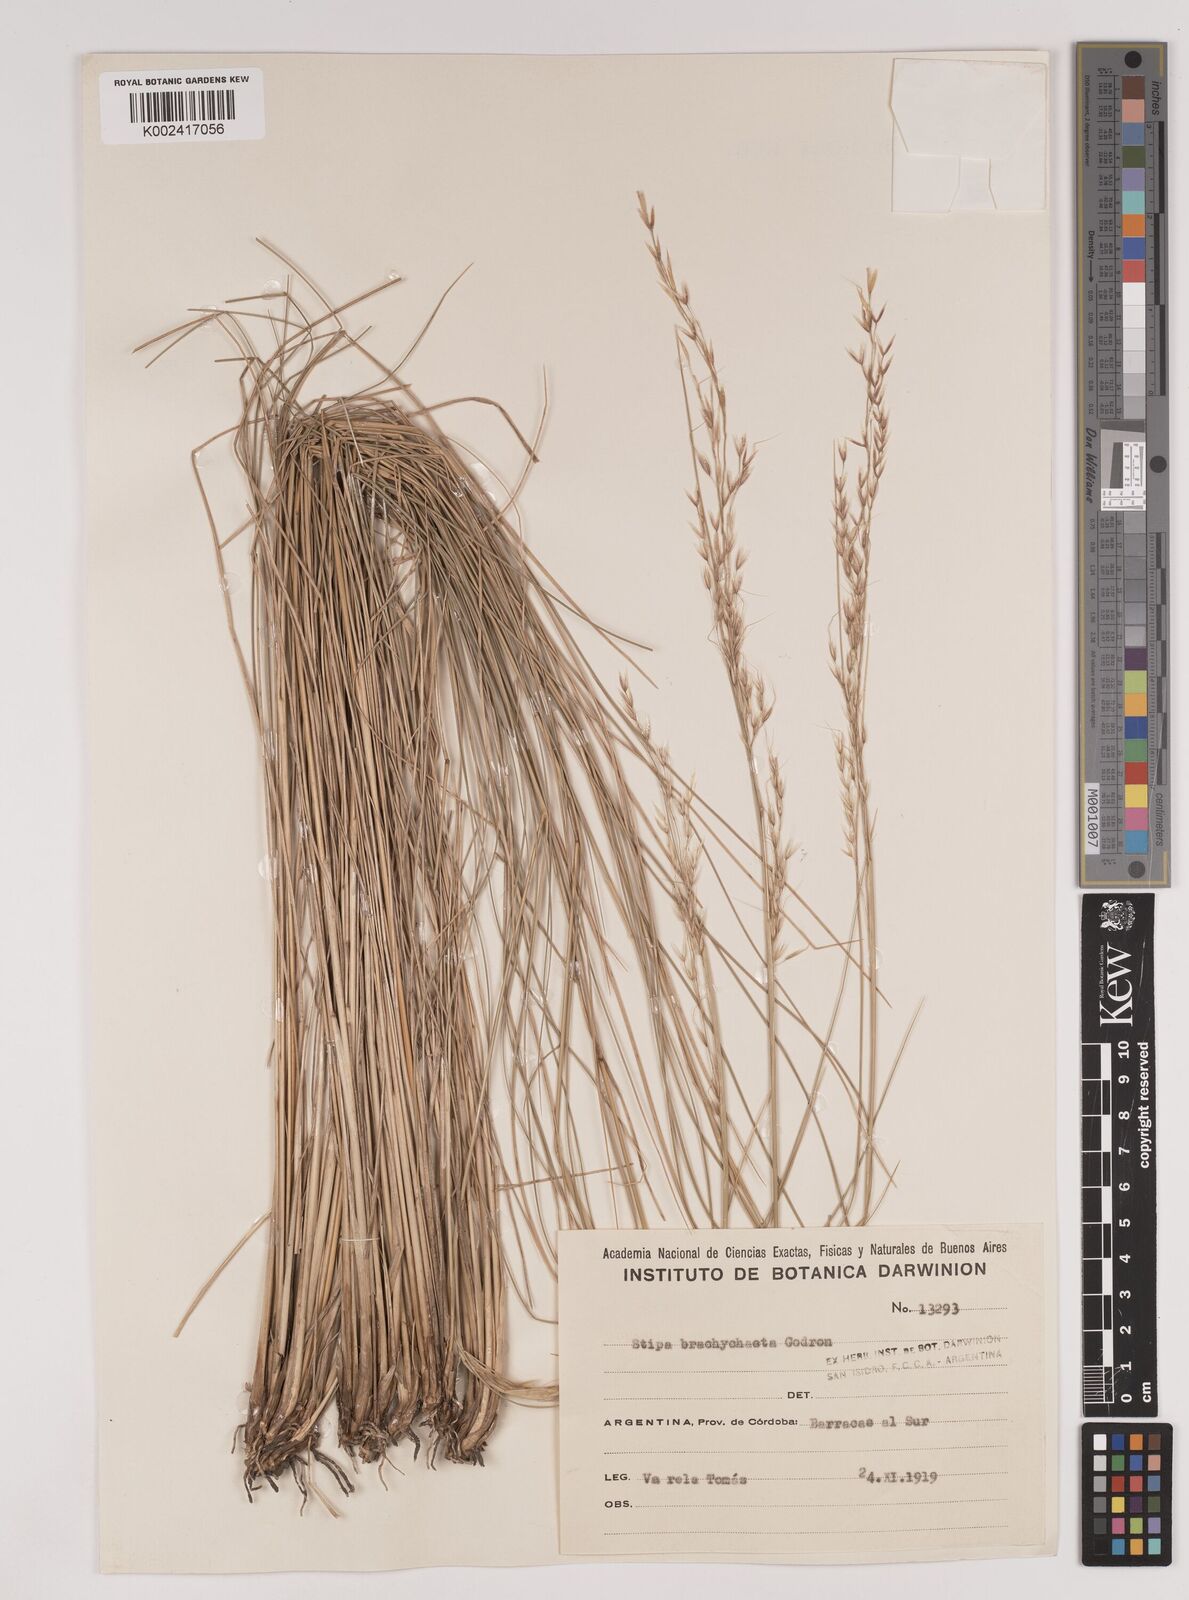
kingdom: Plantae
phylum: Tracheophyta
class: Liliopsida
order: Poales
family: Poaceae
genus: Amelichloa
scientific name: Amelichloa brachychaeta
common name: Shortbristled needlegrass
